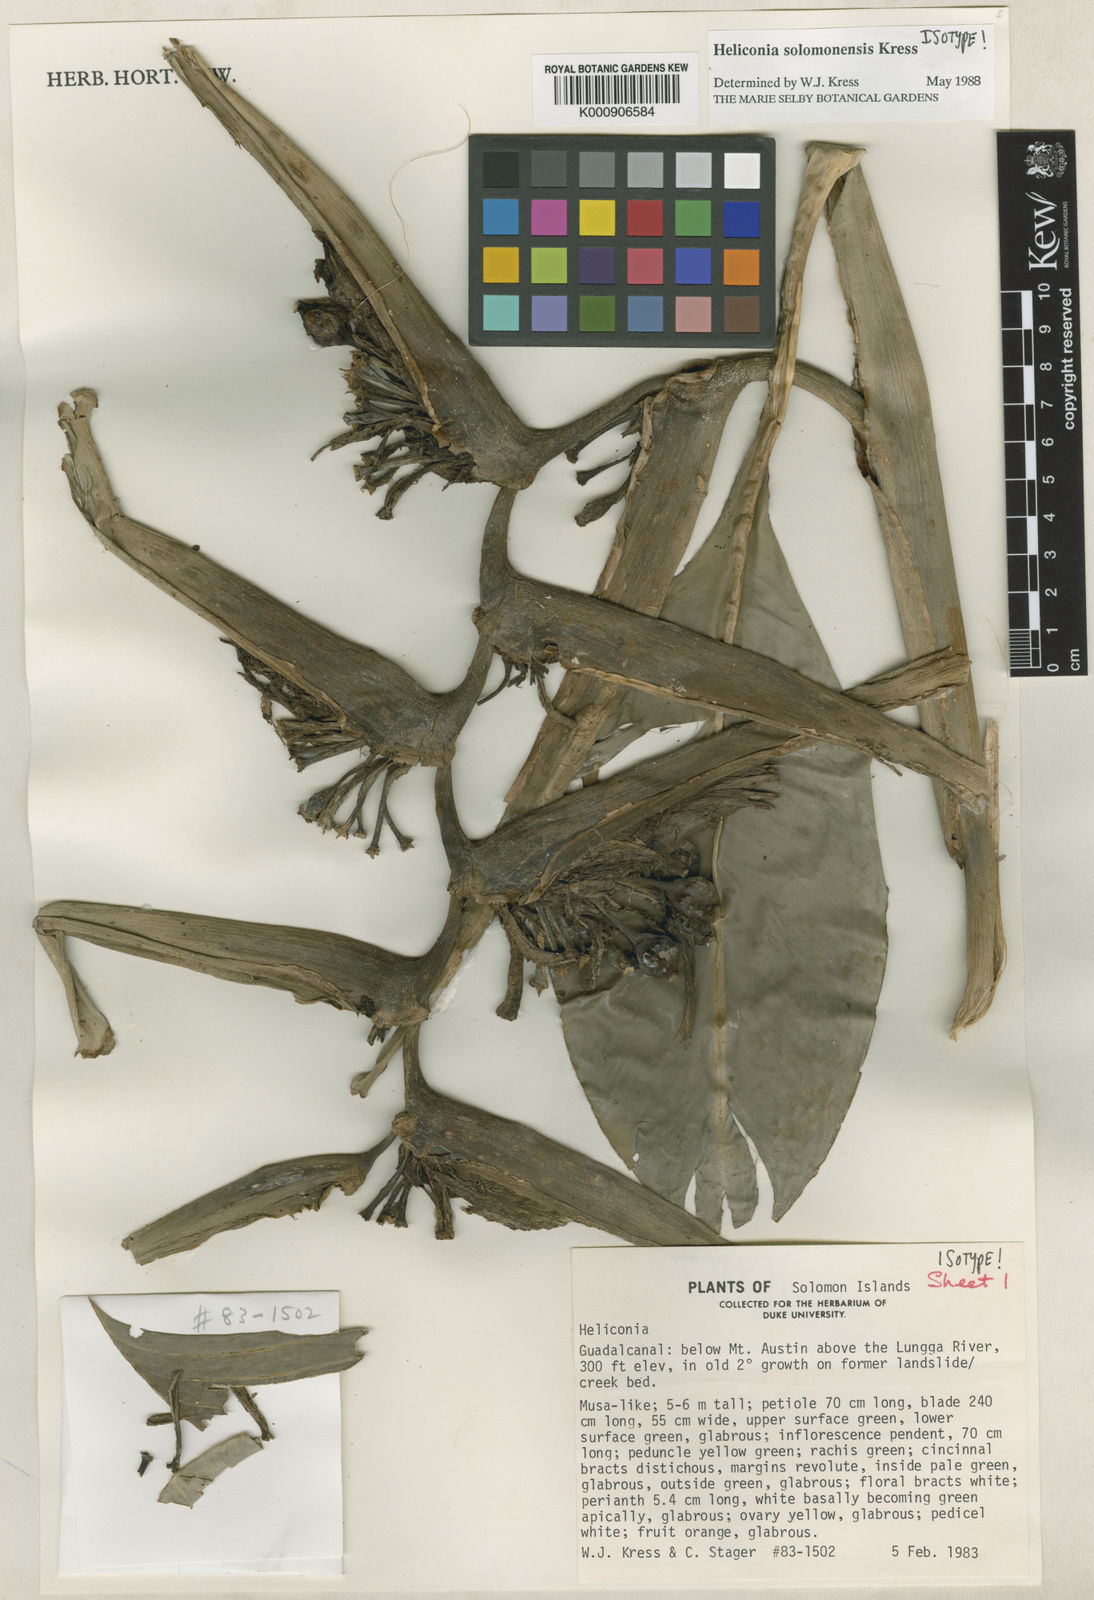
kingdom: Plantae
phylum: Tracheophyta
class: Liliopsida
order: Zingiberales
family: Heliconiaceae
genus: Heliconia
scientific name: Heliconia solomonensis
